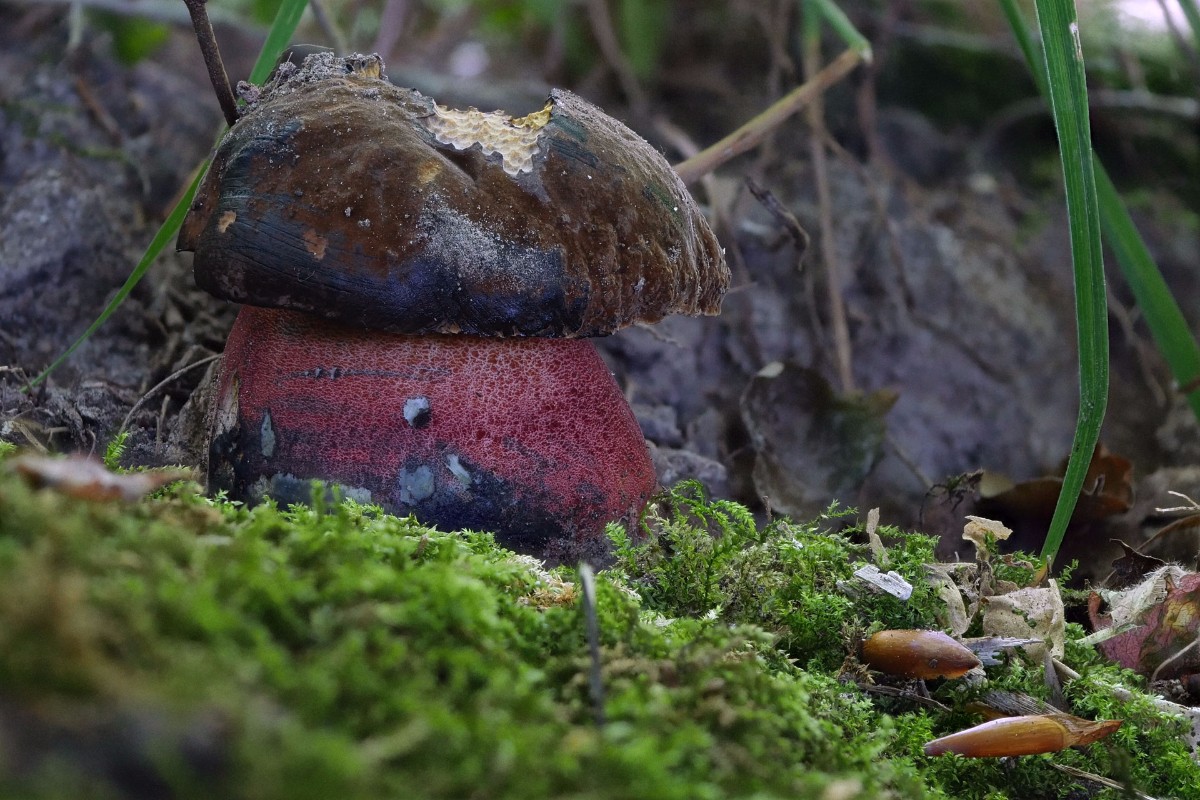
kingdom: Fungi
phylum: Basidiomycota
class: Agaricomycetes
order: Boletales
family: Boletaceae
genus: Neoboletus
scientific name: Neoboletus erythropus
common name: punktstokket indigorørhat
